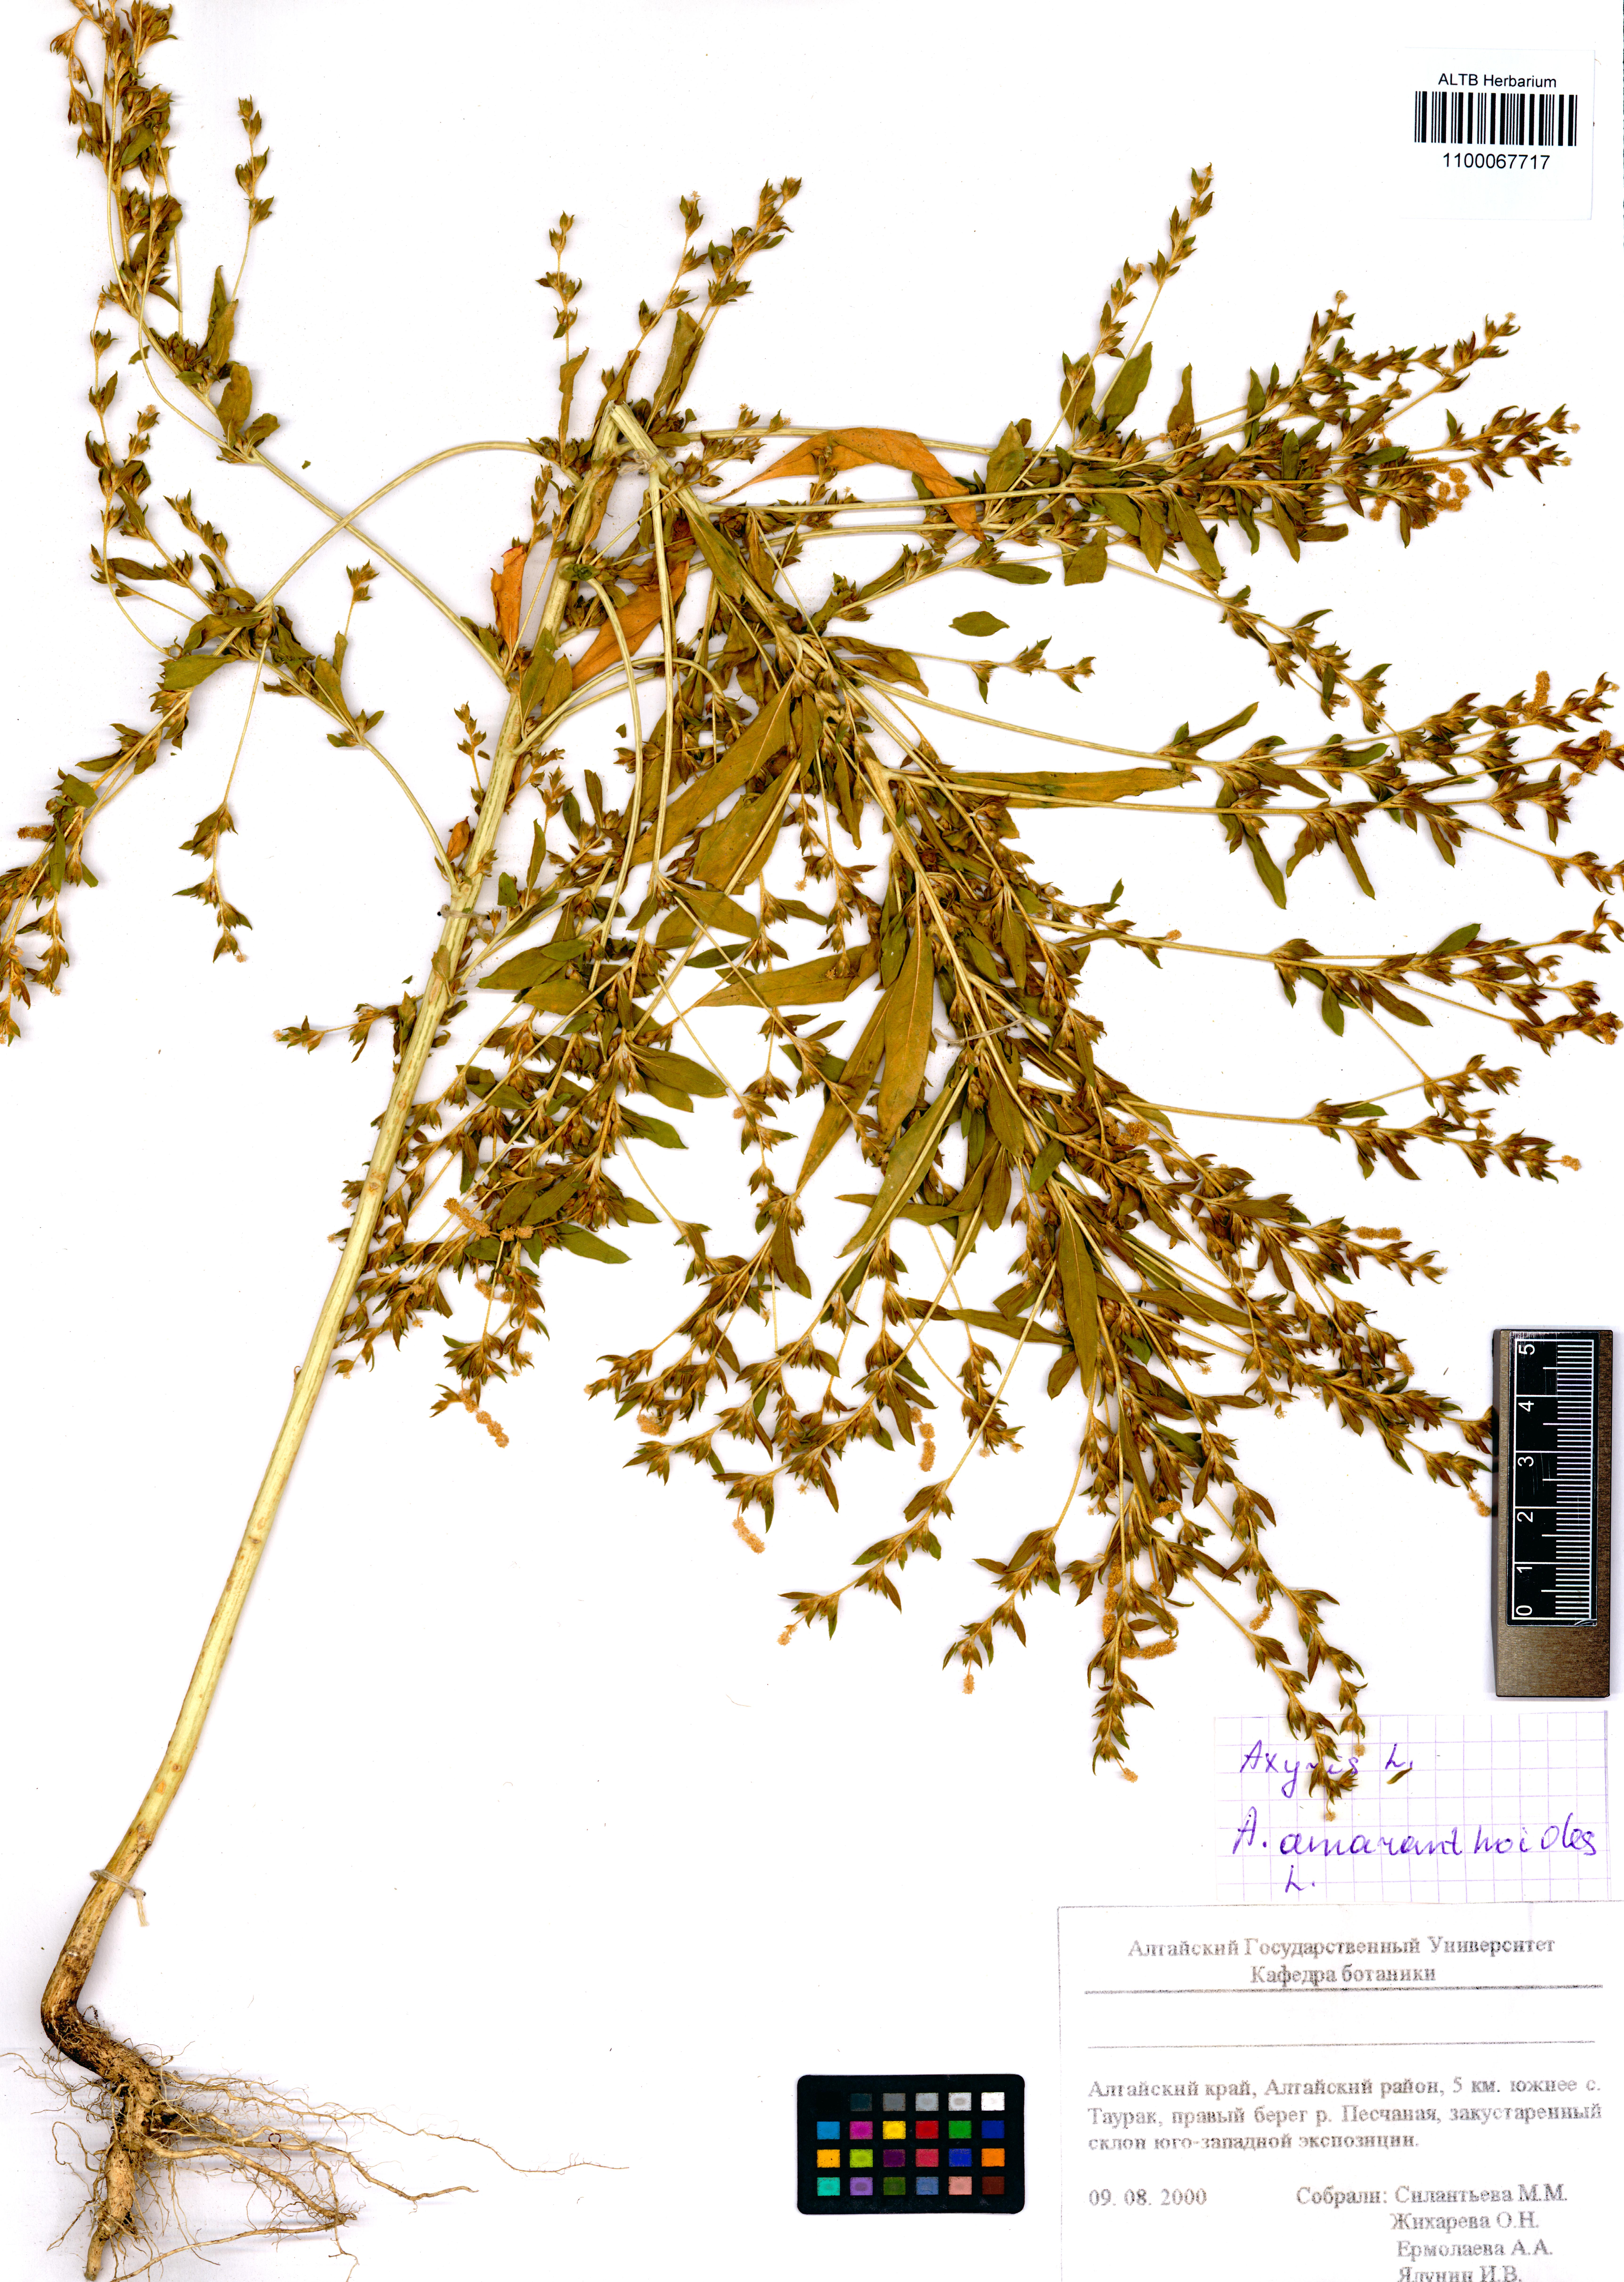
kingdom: Plantae
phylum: Tracheophyta
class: Magnoliopsida
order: Caryophyllales
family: Amaranthaceae
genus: Axyris
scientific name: Axyris amaranthoides
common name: Russian pigweed
